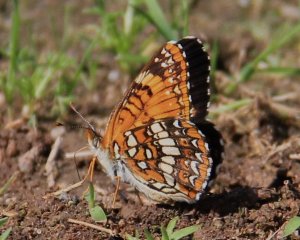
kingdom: Animalia
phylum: Arthropoda
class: Insecta
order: Lepidoptera
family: Nymphalidae
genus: Chlosyne
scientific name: Chlosyne harrisii
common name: Harris's Checkerspot
